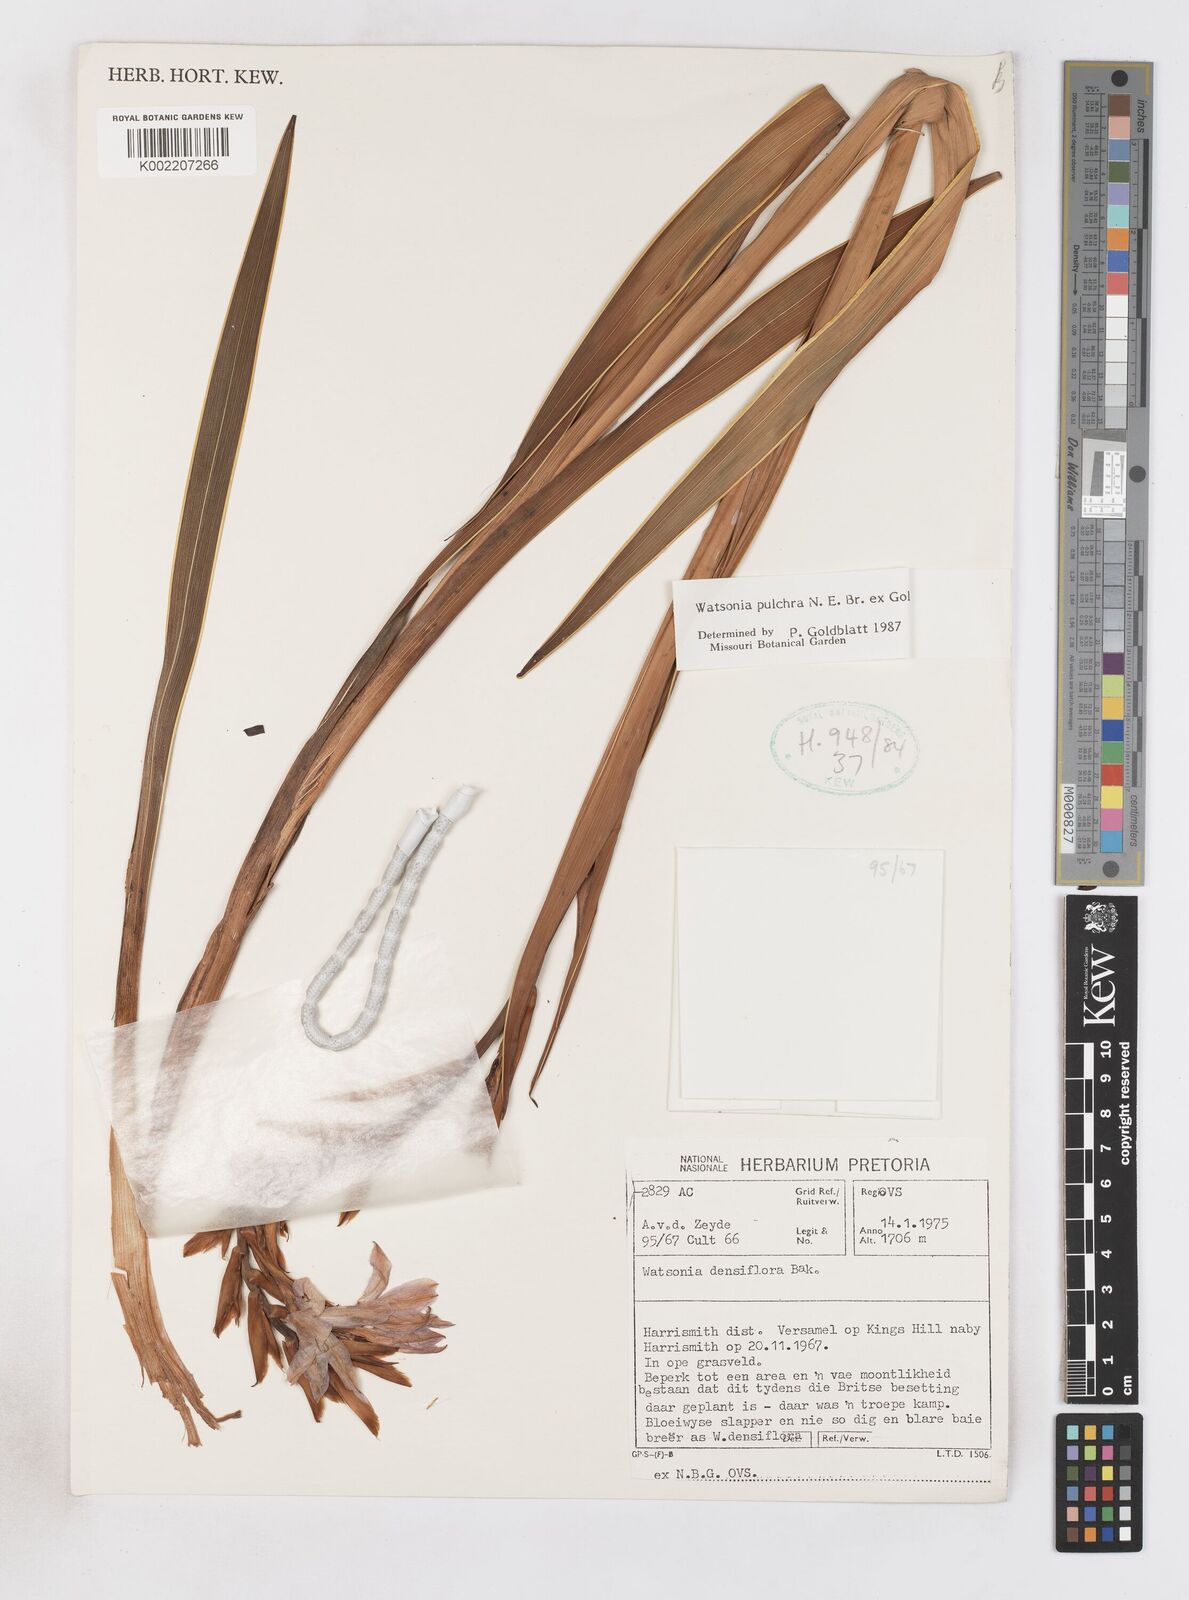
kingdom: Plantae
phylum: Tracheophyta
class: Liliopsida
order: Asparagales
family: Iridaceae
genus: Watsonia
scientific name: Watsonia pulchra
